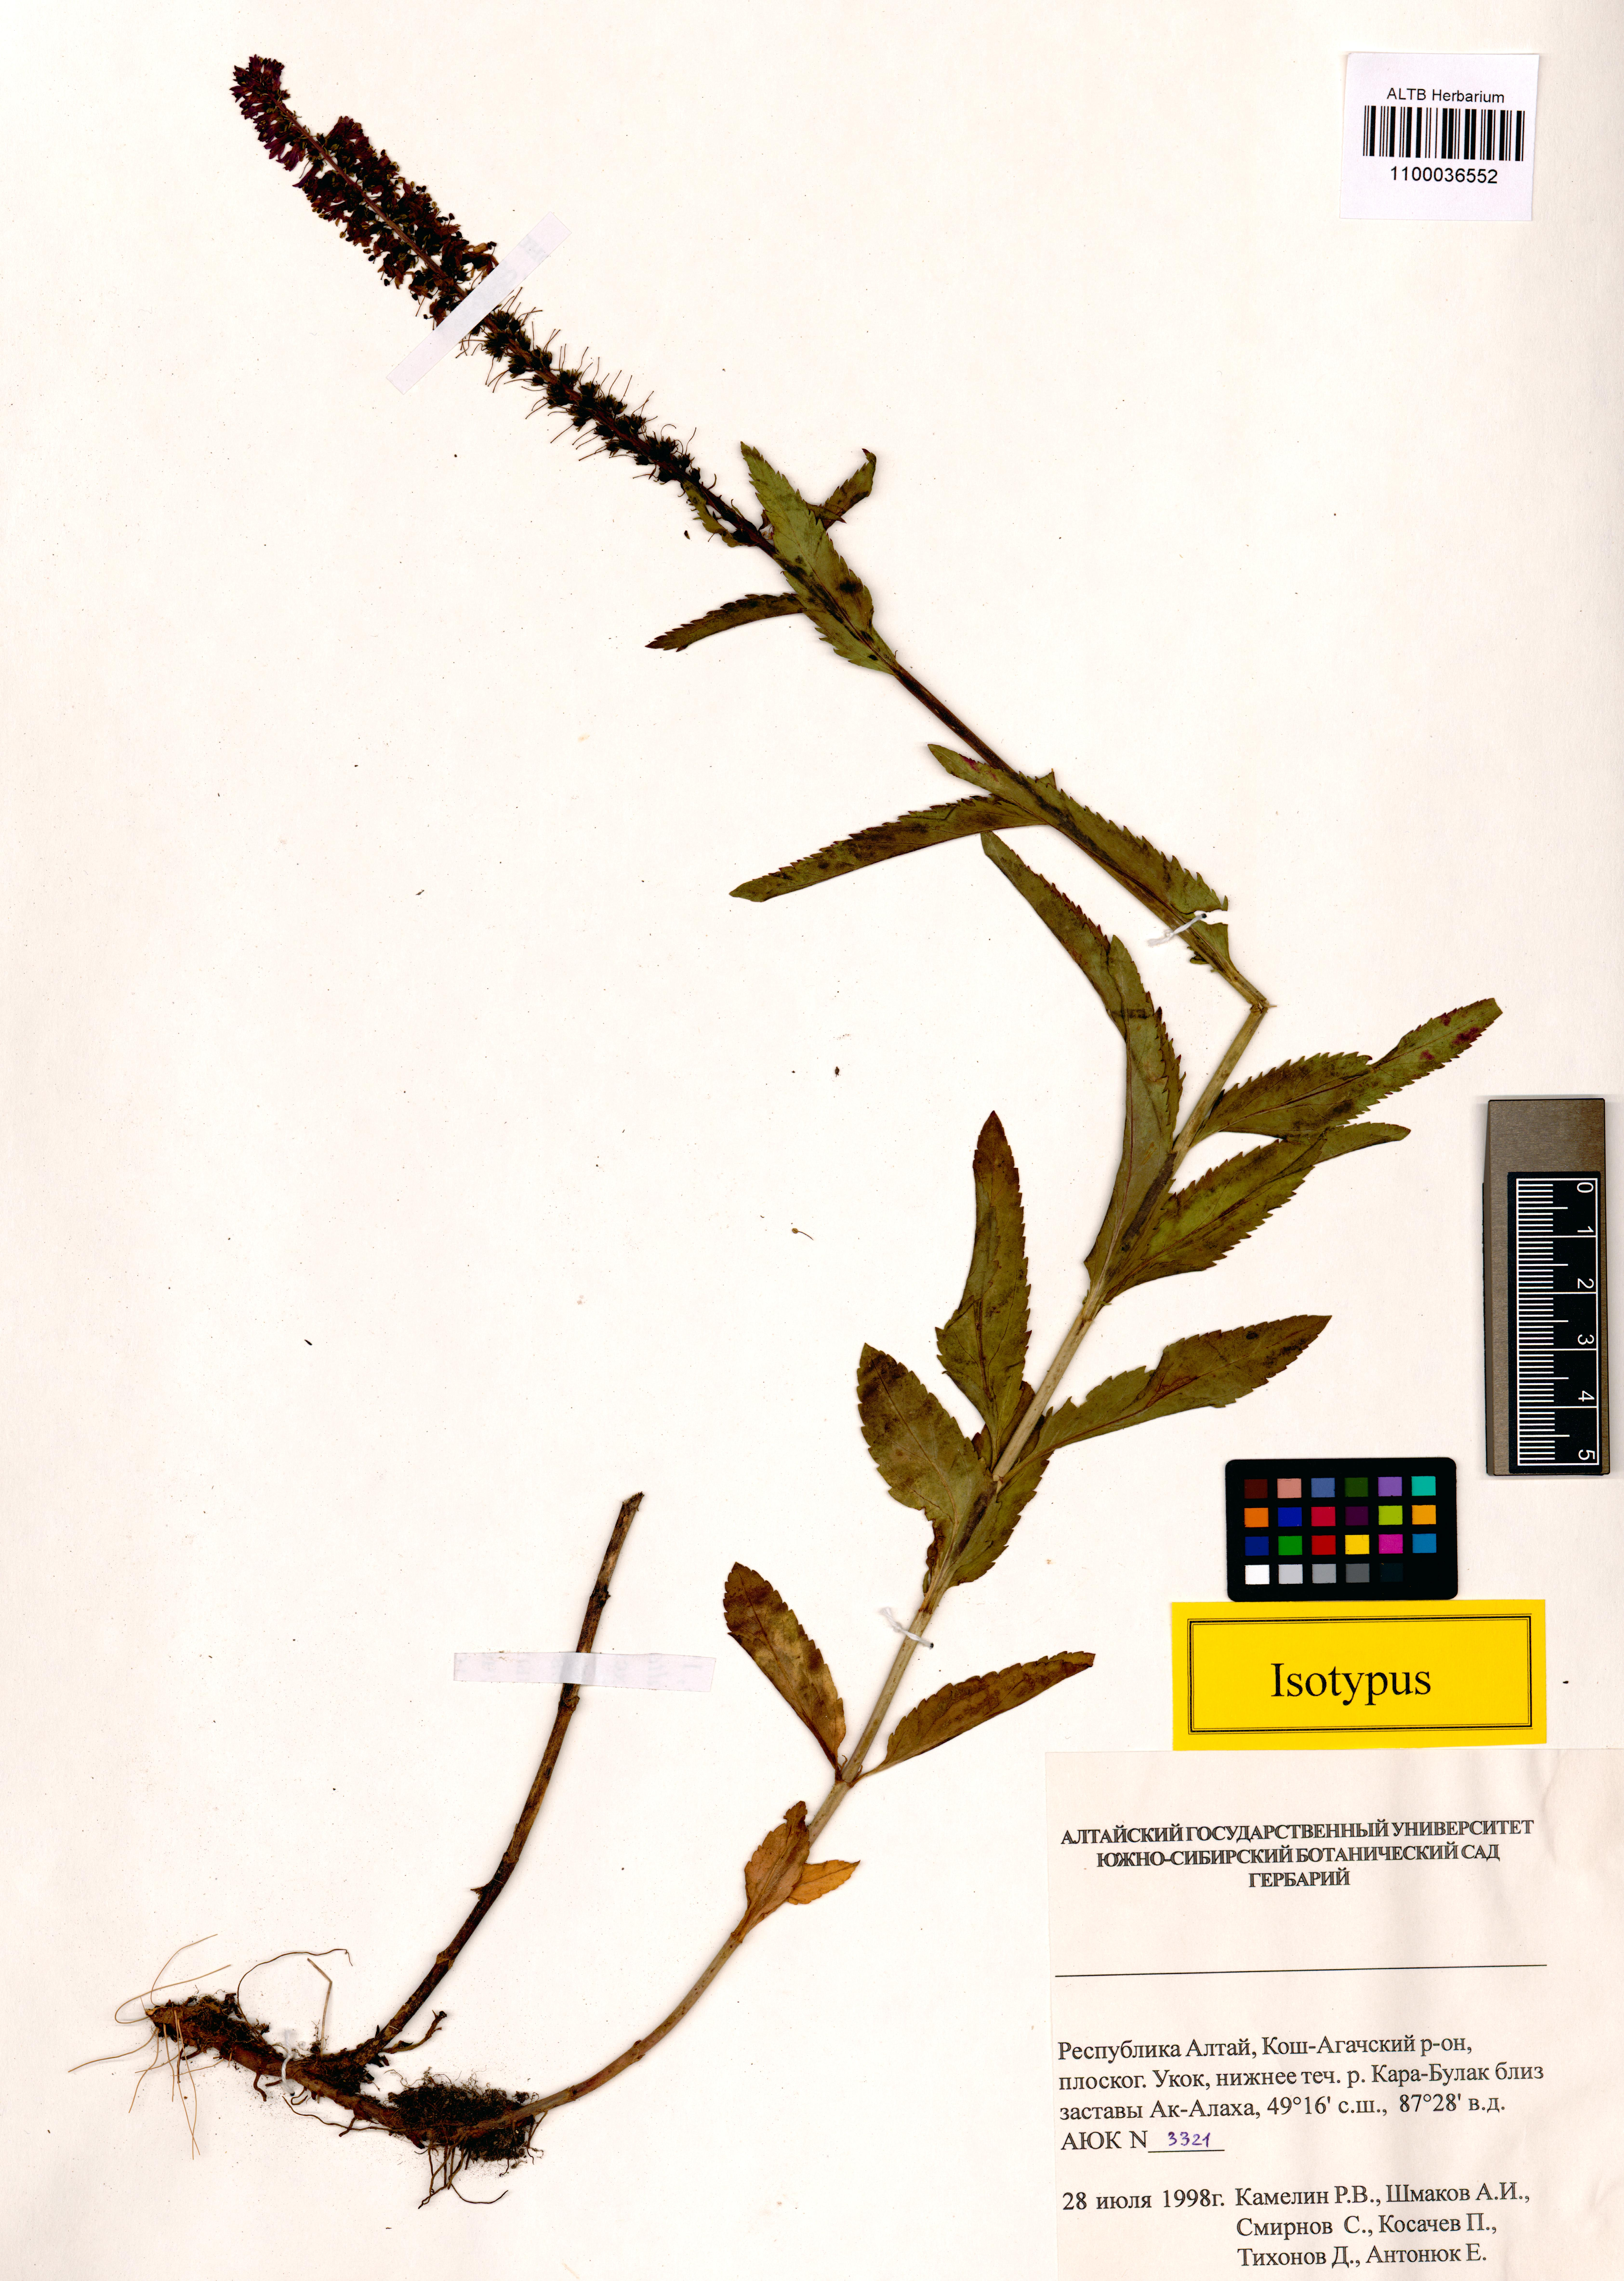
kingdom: Plantae
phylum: Tracheophyta
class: Magnoliopsida
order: Lamiales
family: Plantaginaceae
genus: Veronica
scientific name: Veronica schmakovii
